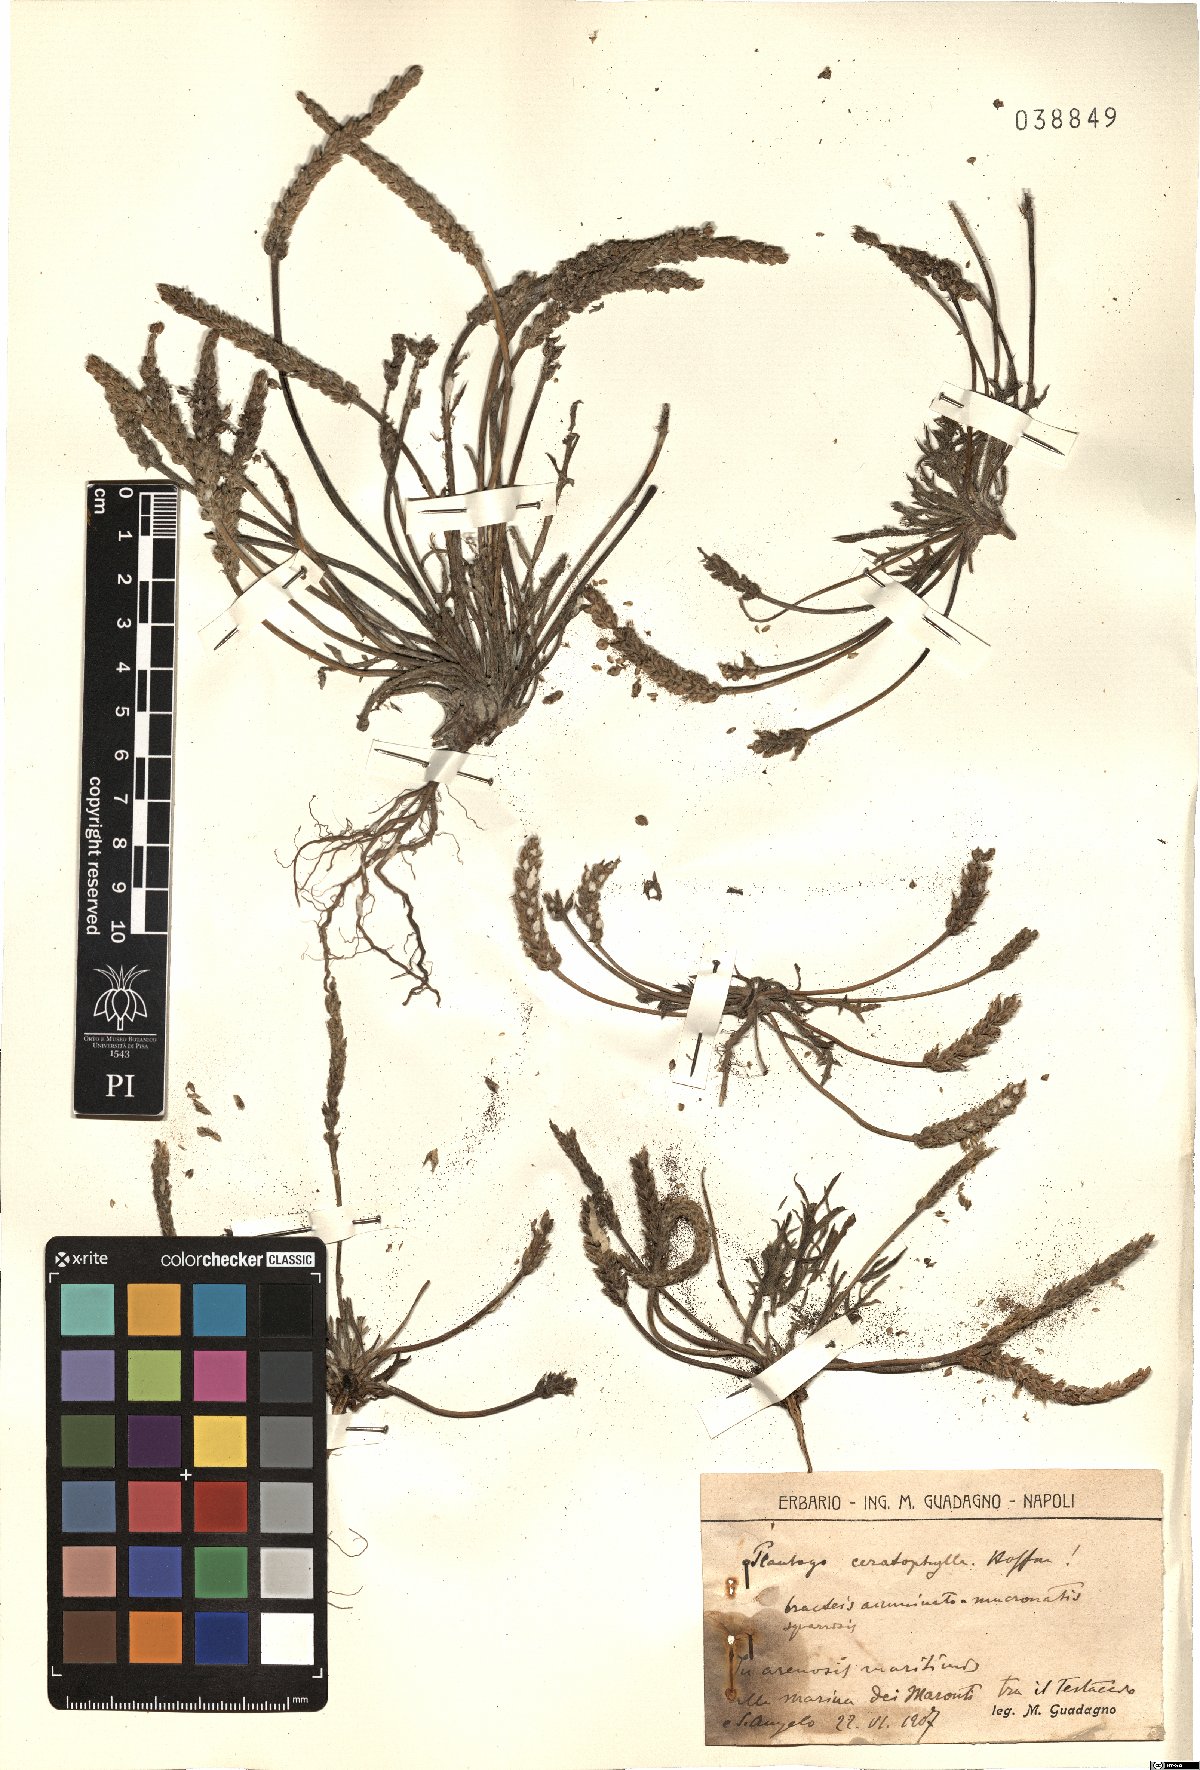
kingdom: Plantae
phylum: Tracheophyta
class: Magnoliopsida
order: Lamiales
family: Plantaginaceae
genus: Plantago
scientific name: Plantago coronopus
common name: Buck's-horn plantain
